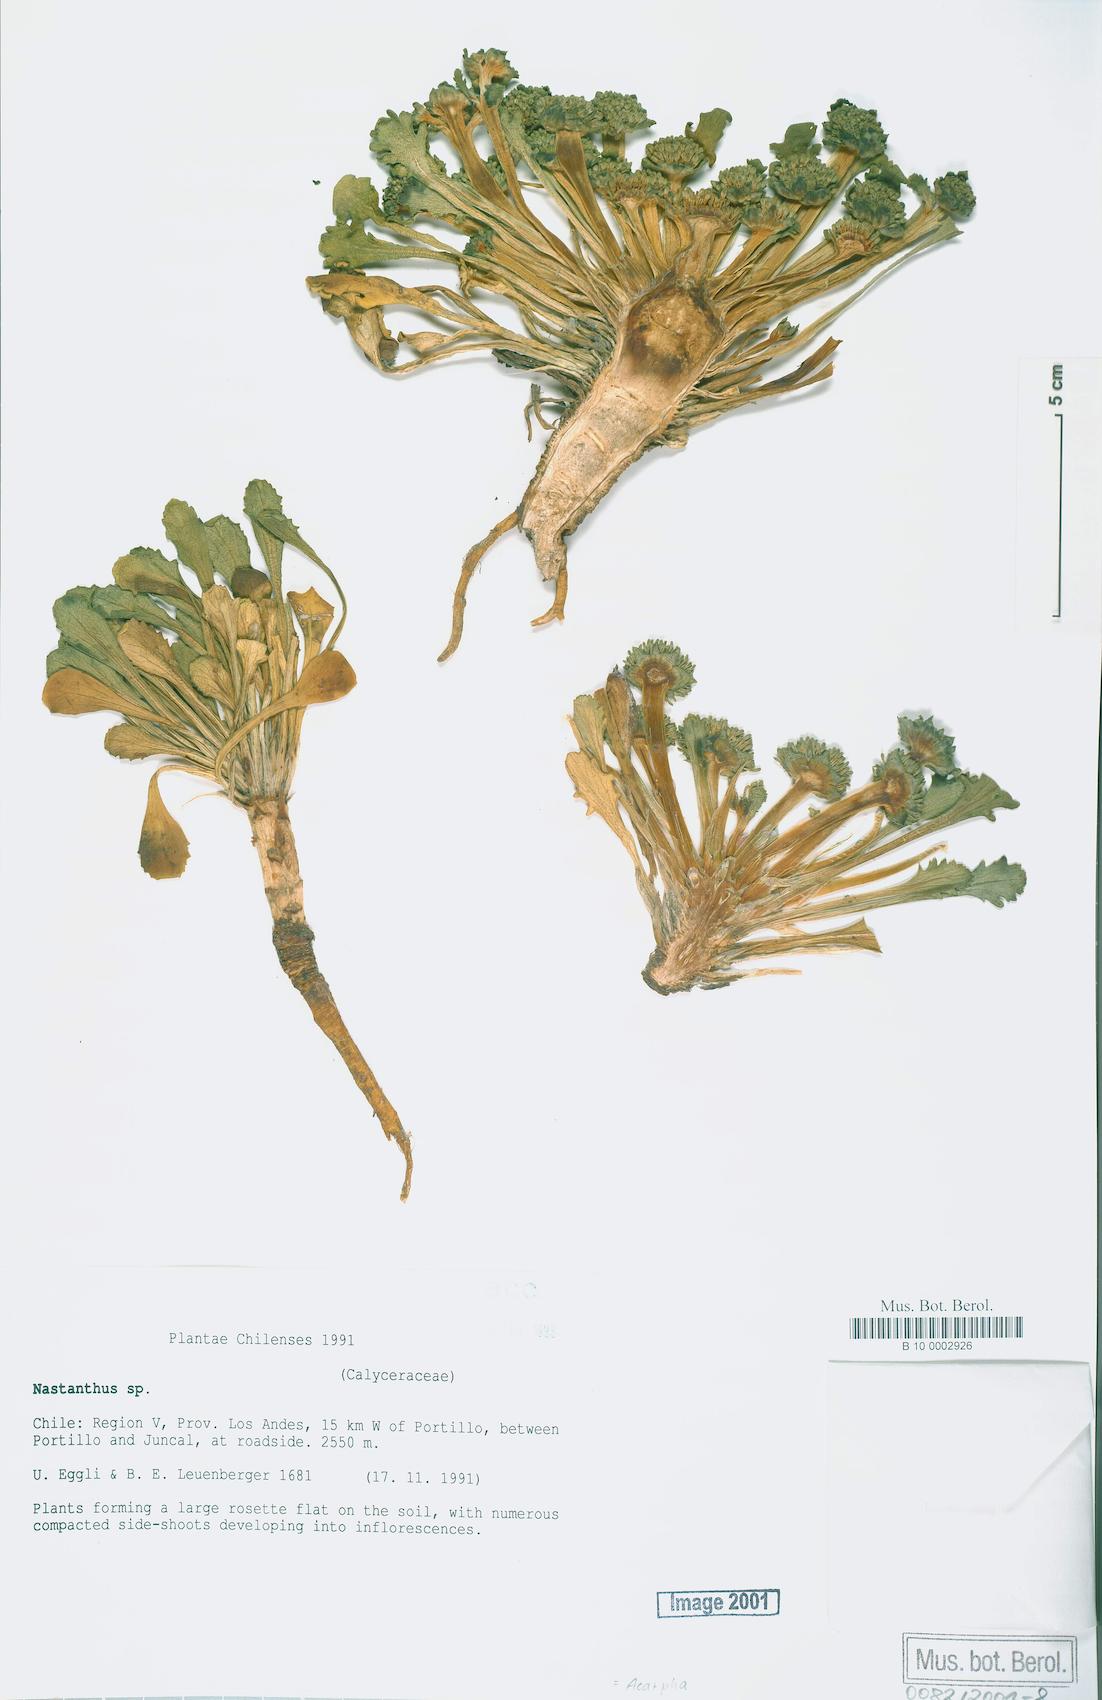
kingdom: Plantae
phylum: Tracheophyta
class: Magnoliopsida
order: Asterales
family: Calyceraceae
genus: Acicarpha
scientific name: Acicarpha
